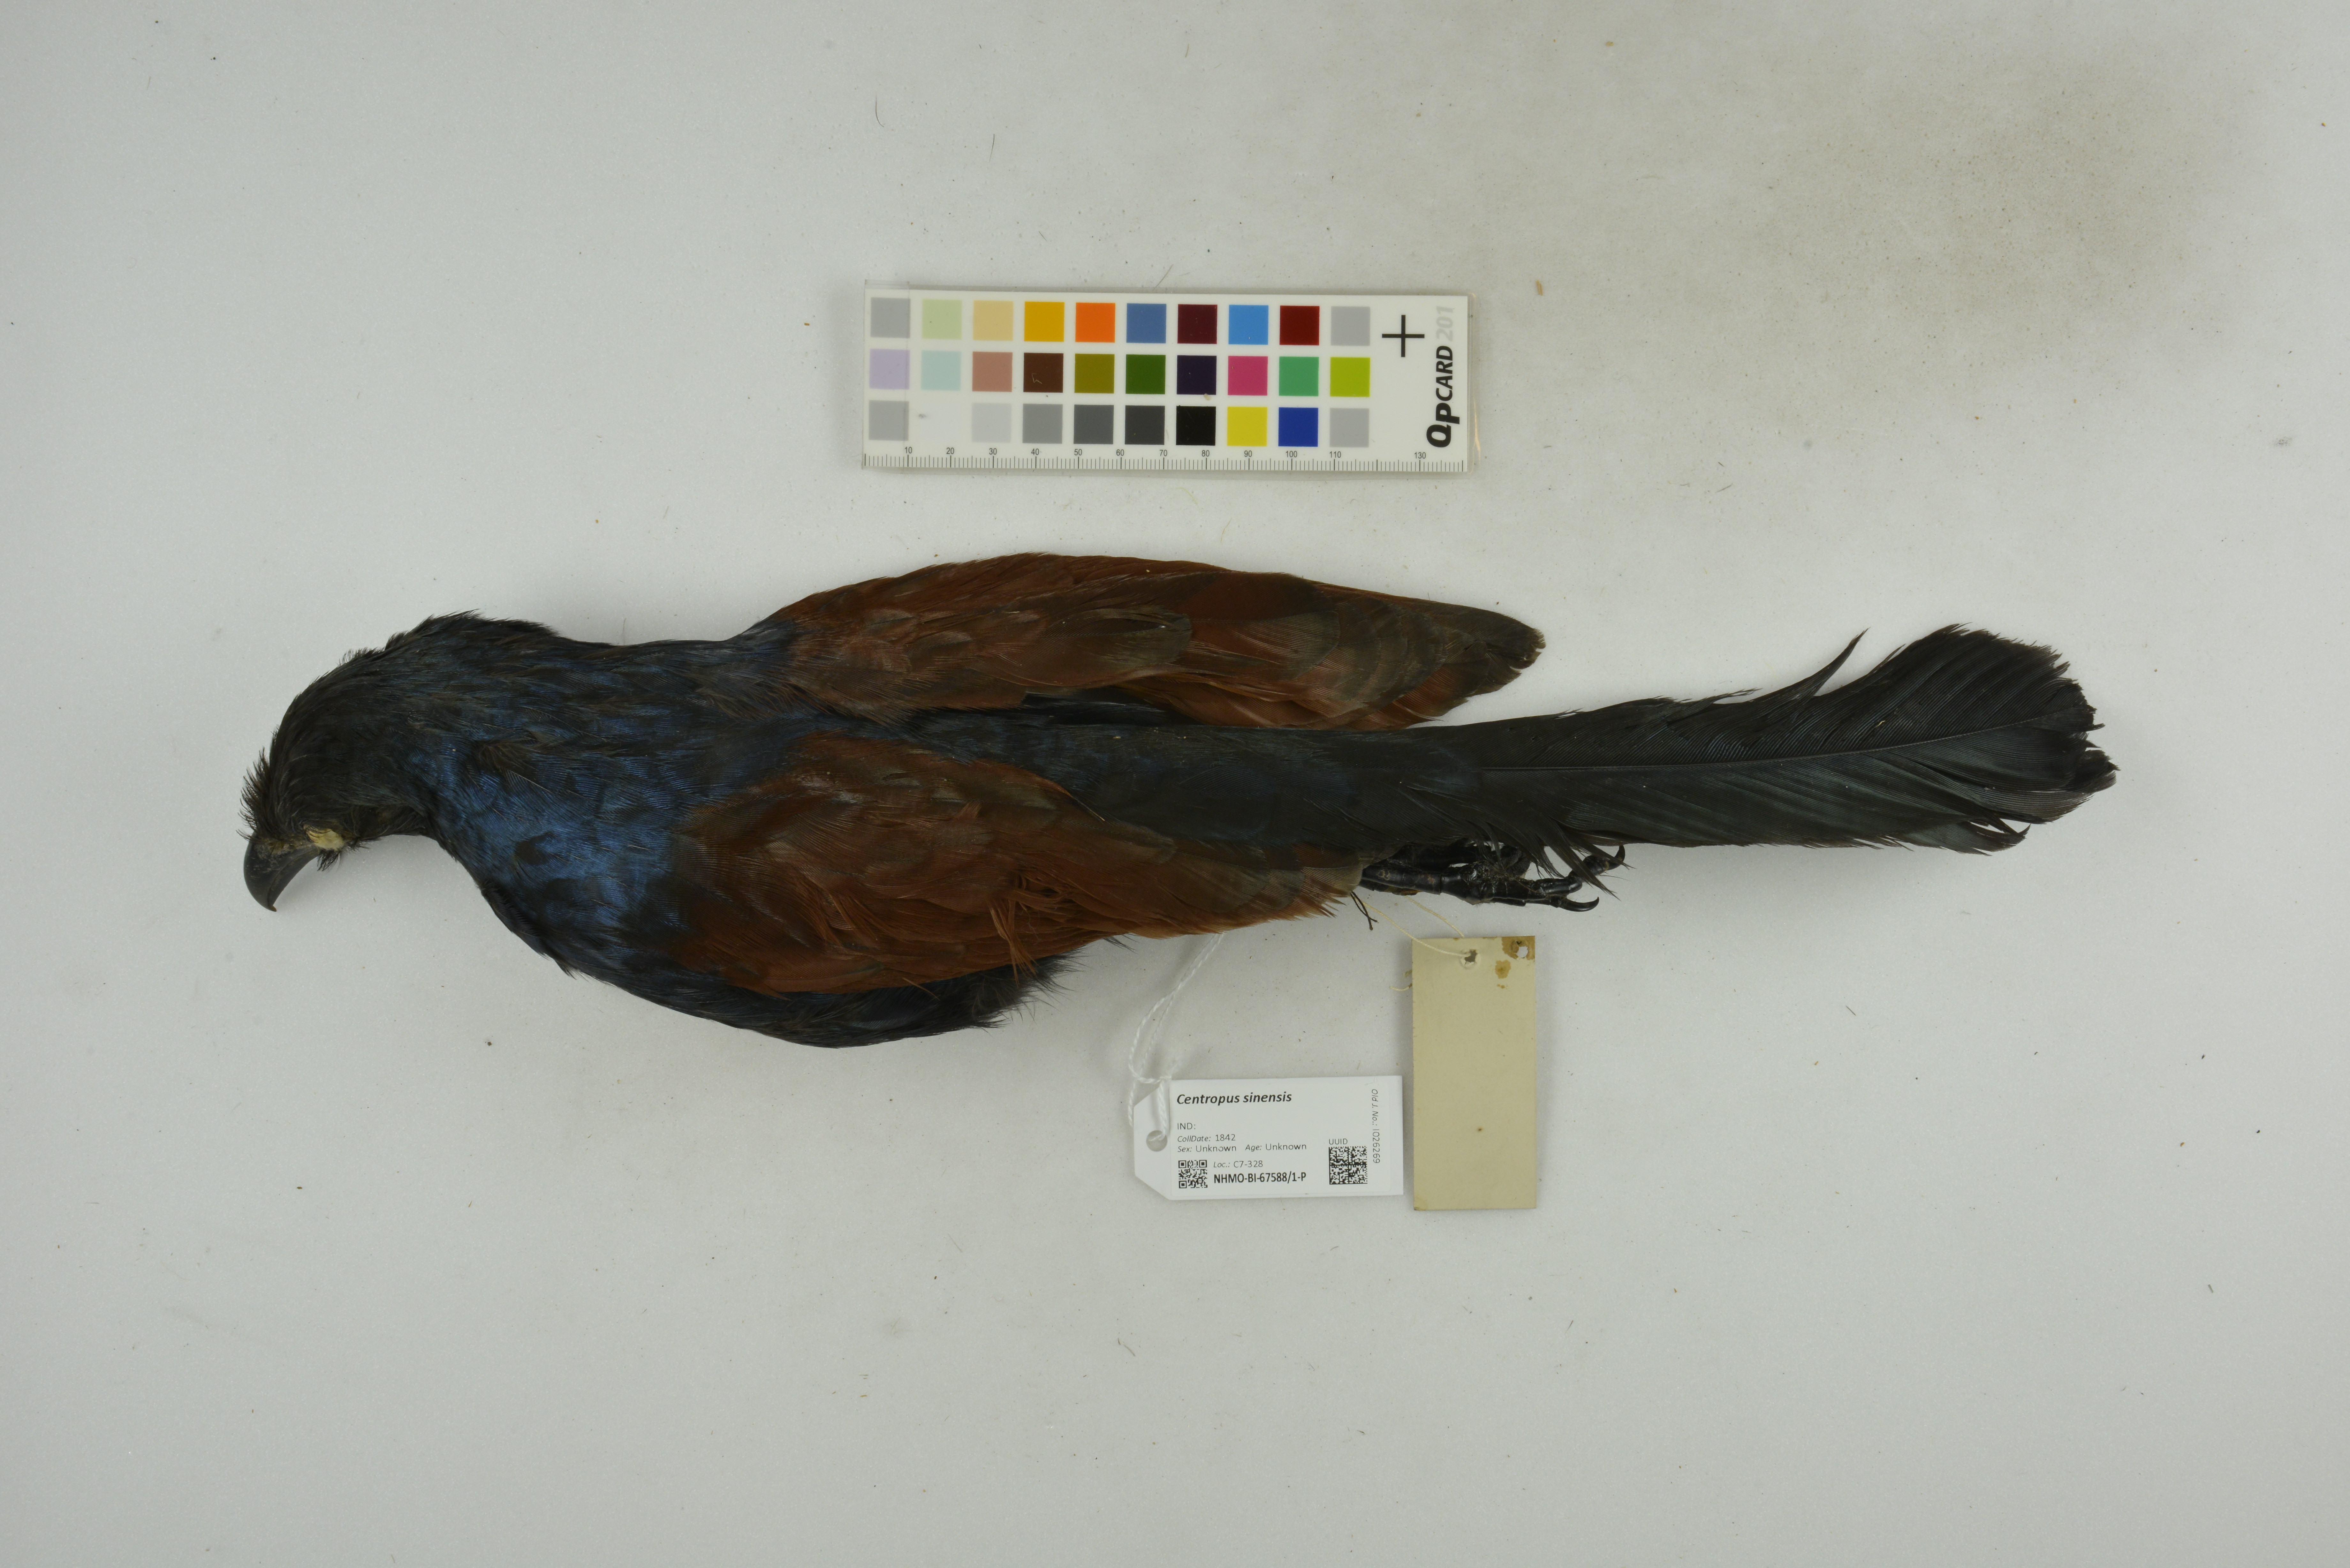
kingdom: Animalia
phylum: Chordata
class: Aves
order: Cuculiformes
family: Cuculidae
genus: Centropus
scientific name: Centropus sinensis
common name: Greater coucal
